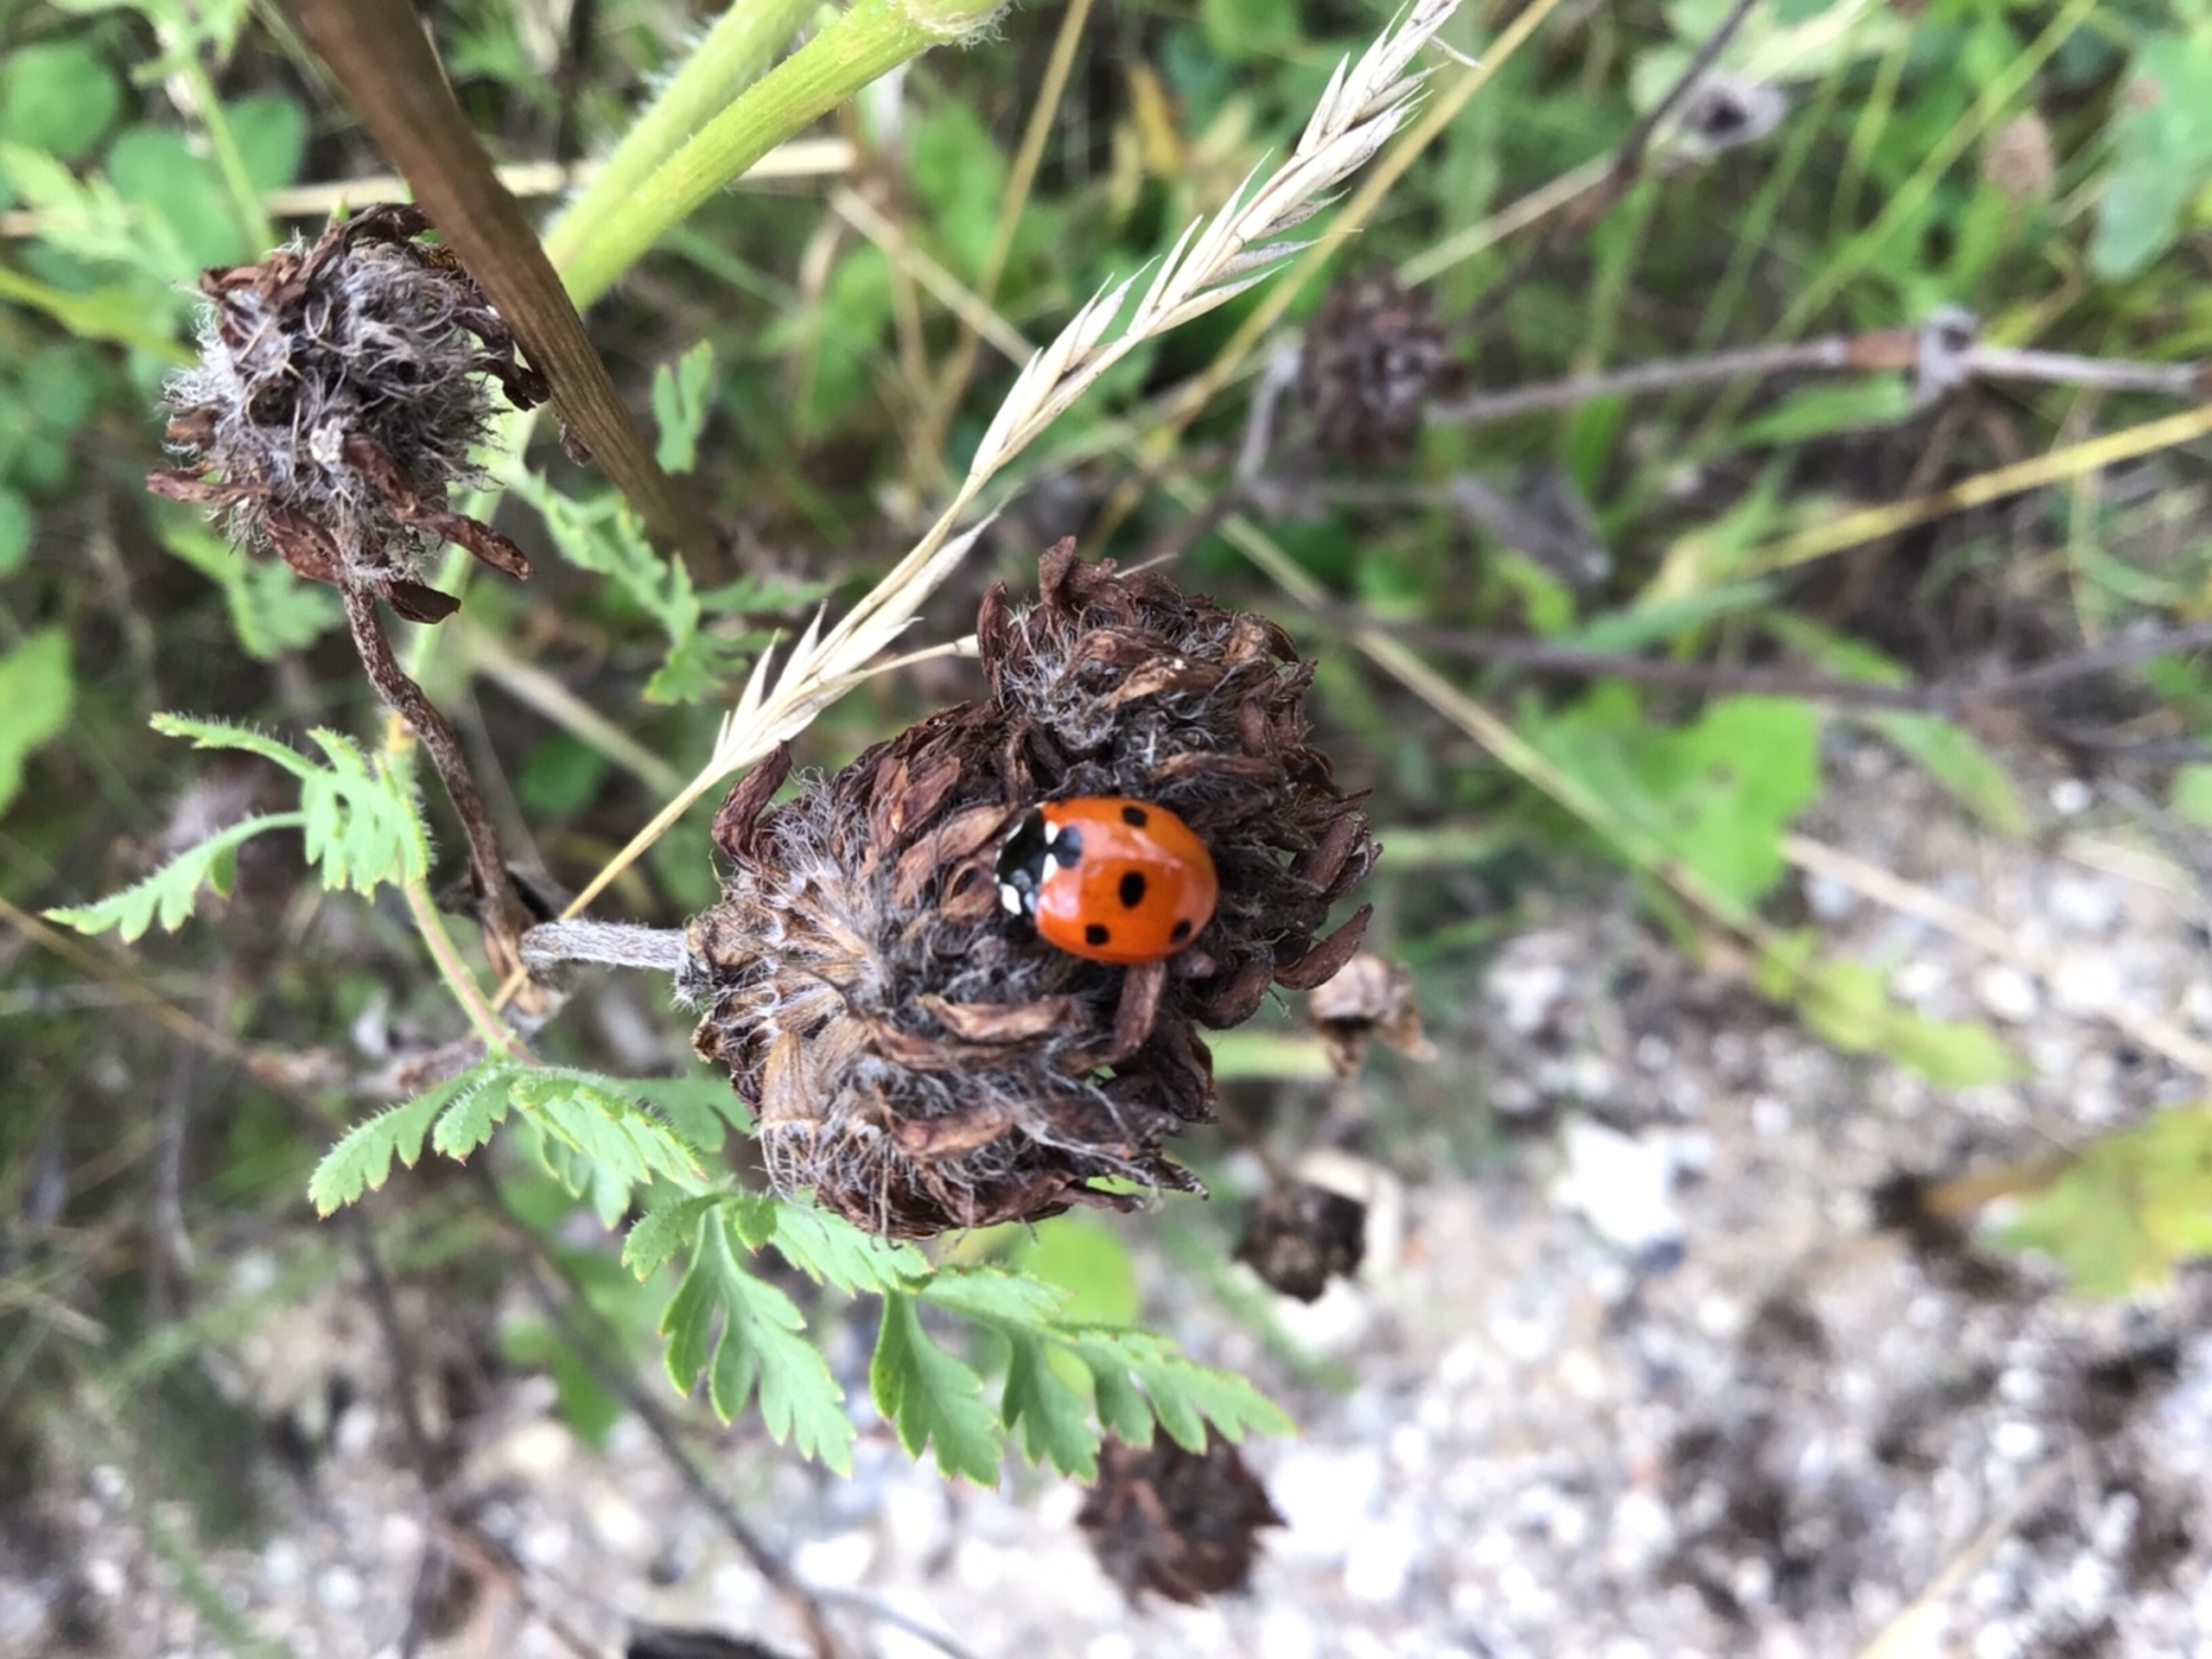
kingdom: Animalia
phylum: Arthropoda
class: Insecta
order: Coleoptera
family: Coccinellidae
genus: Coccinella
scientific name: Coccinella septempunctata
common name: Syvplettet mariehøne
